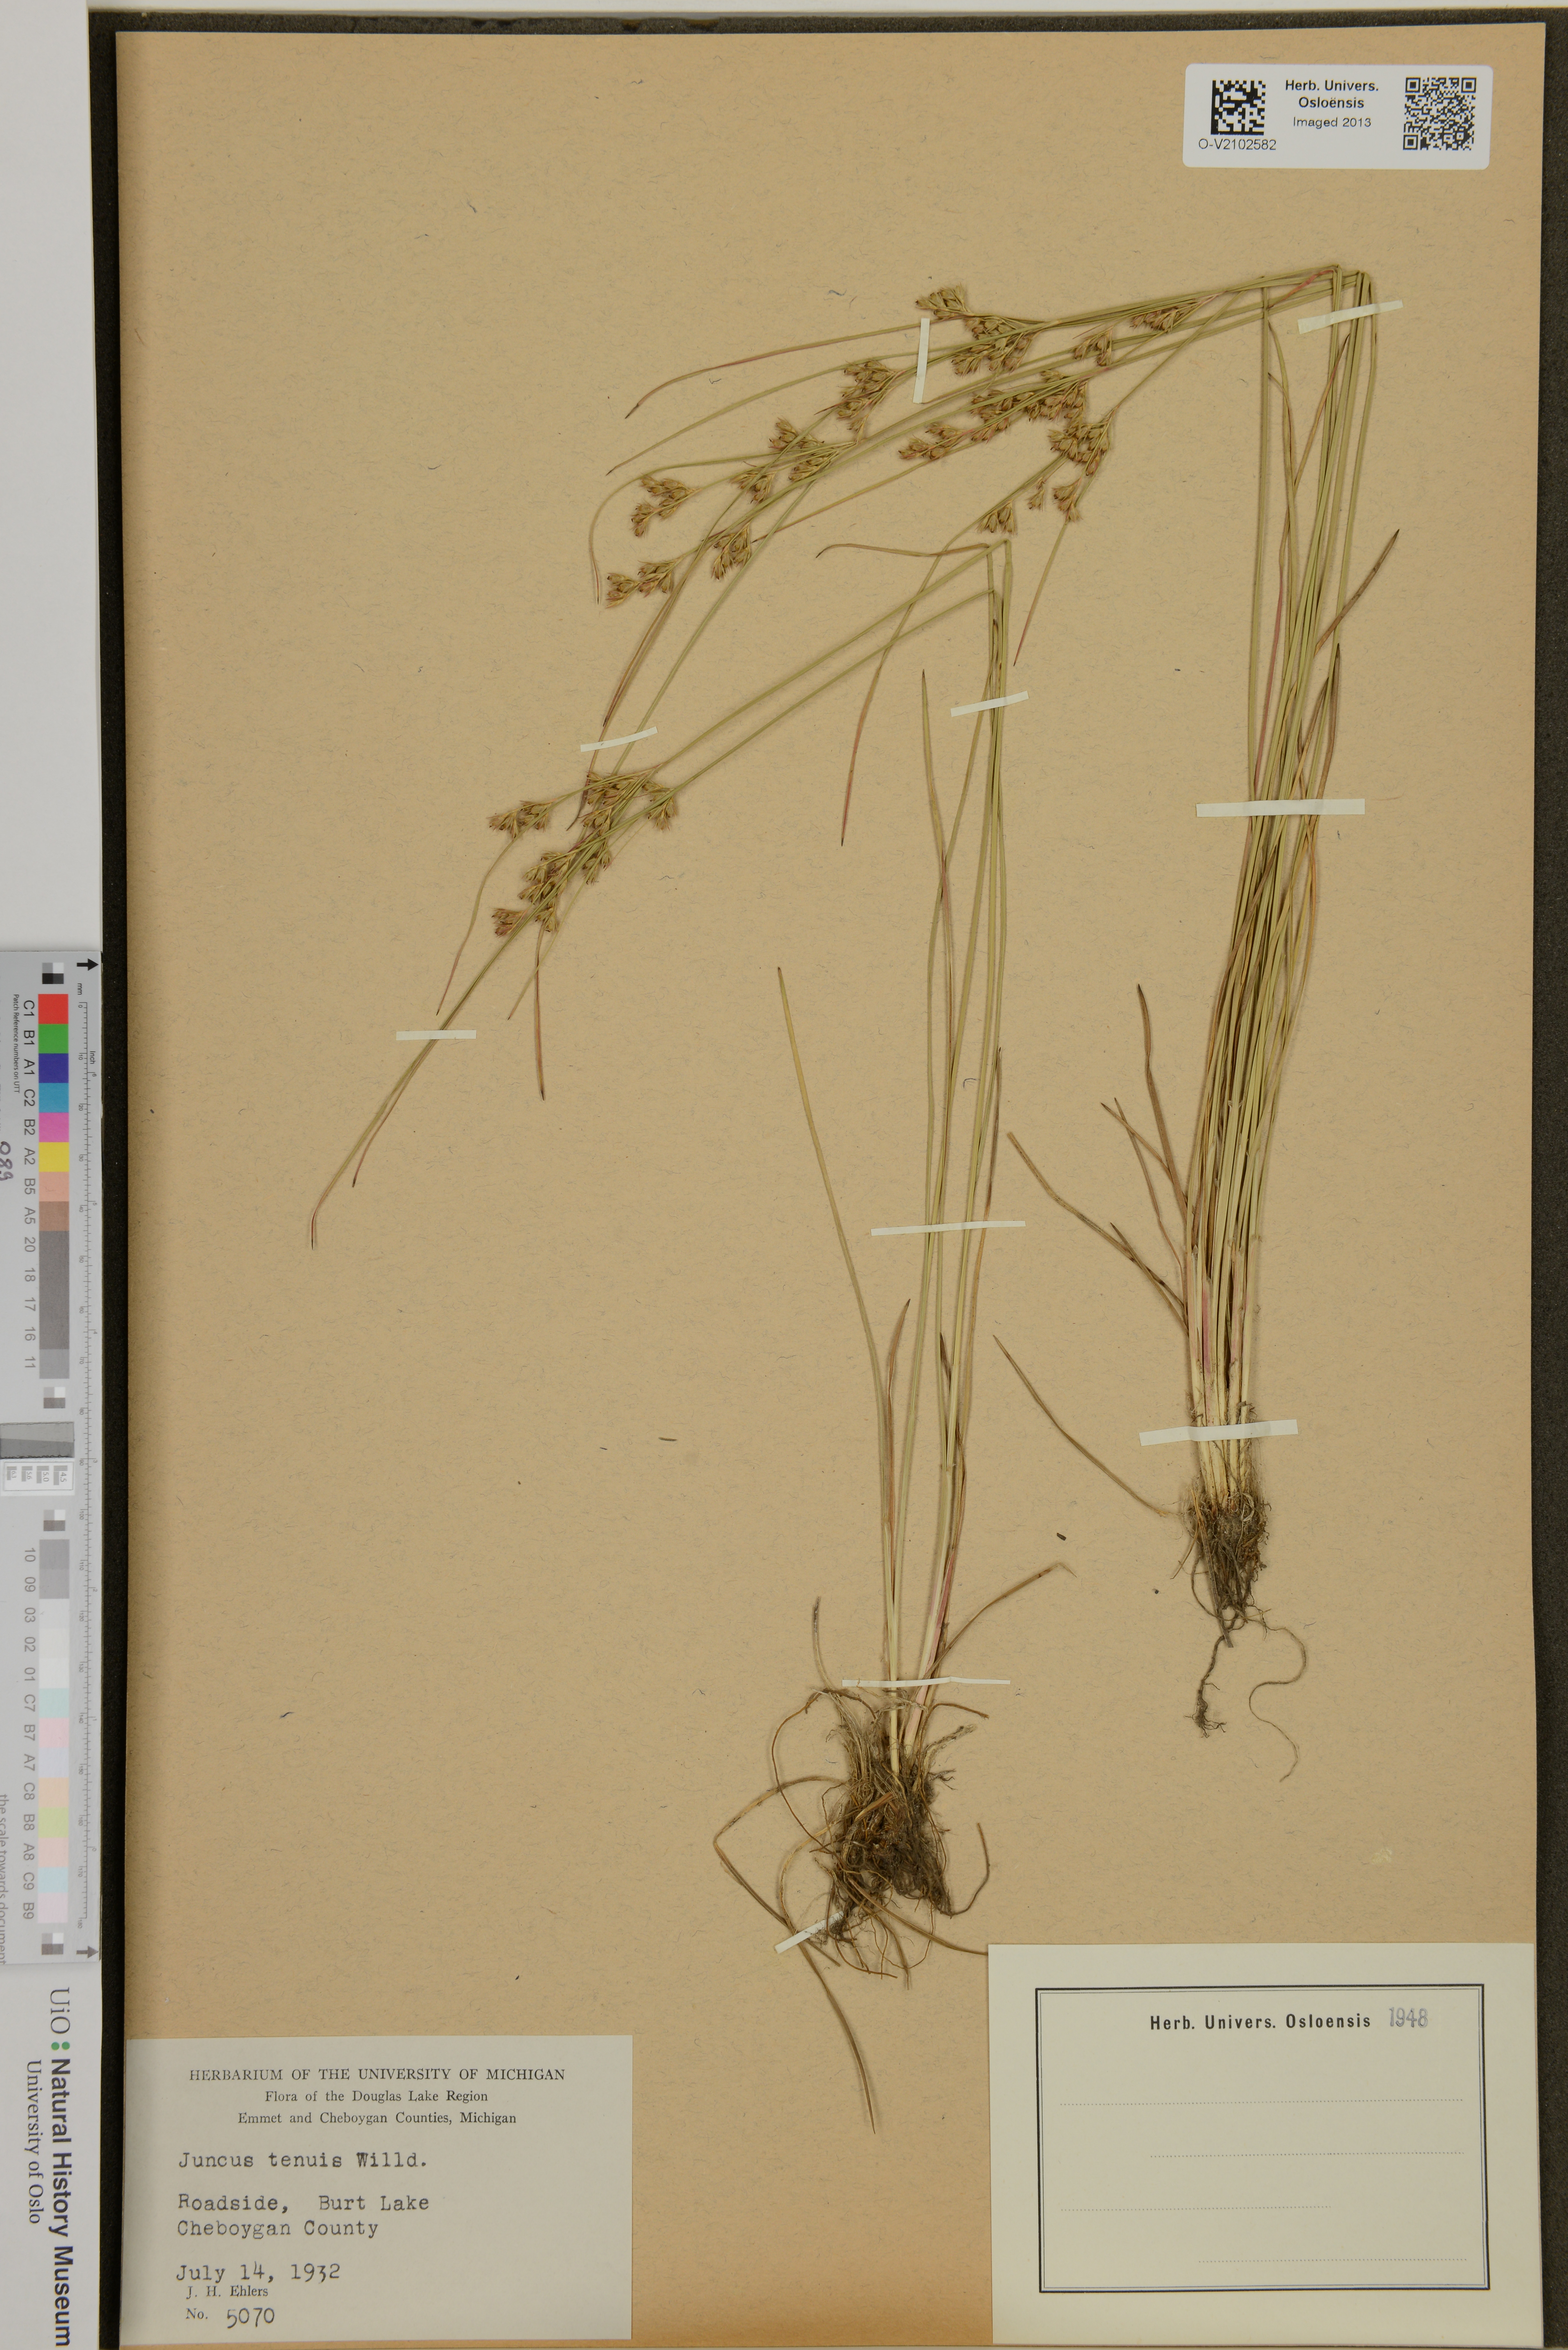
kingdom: Plantae
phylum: Tracheophyta
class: Liliopsida
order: Poales
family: Juncaceae
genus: Juncus
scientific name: Juncus tenuis
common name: Slender rush
